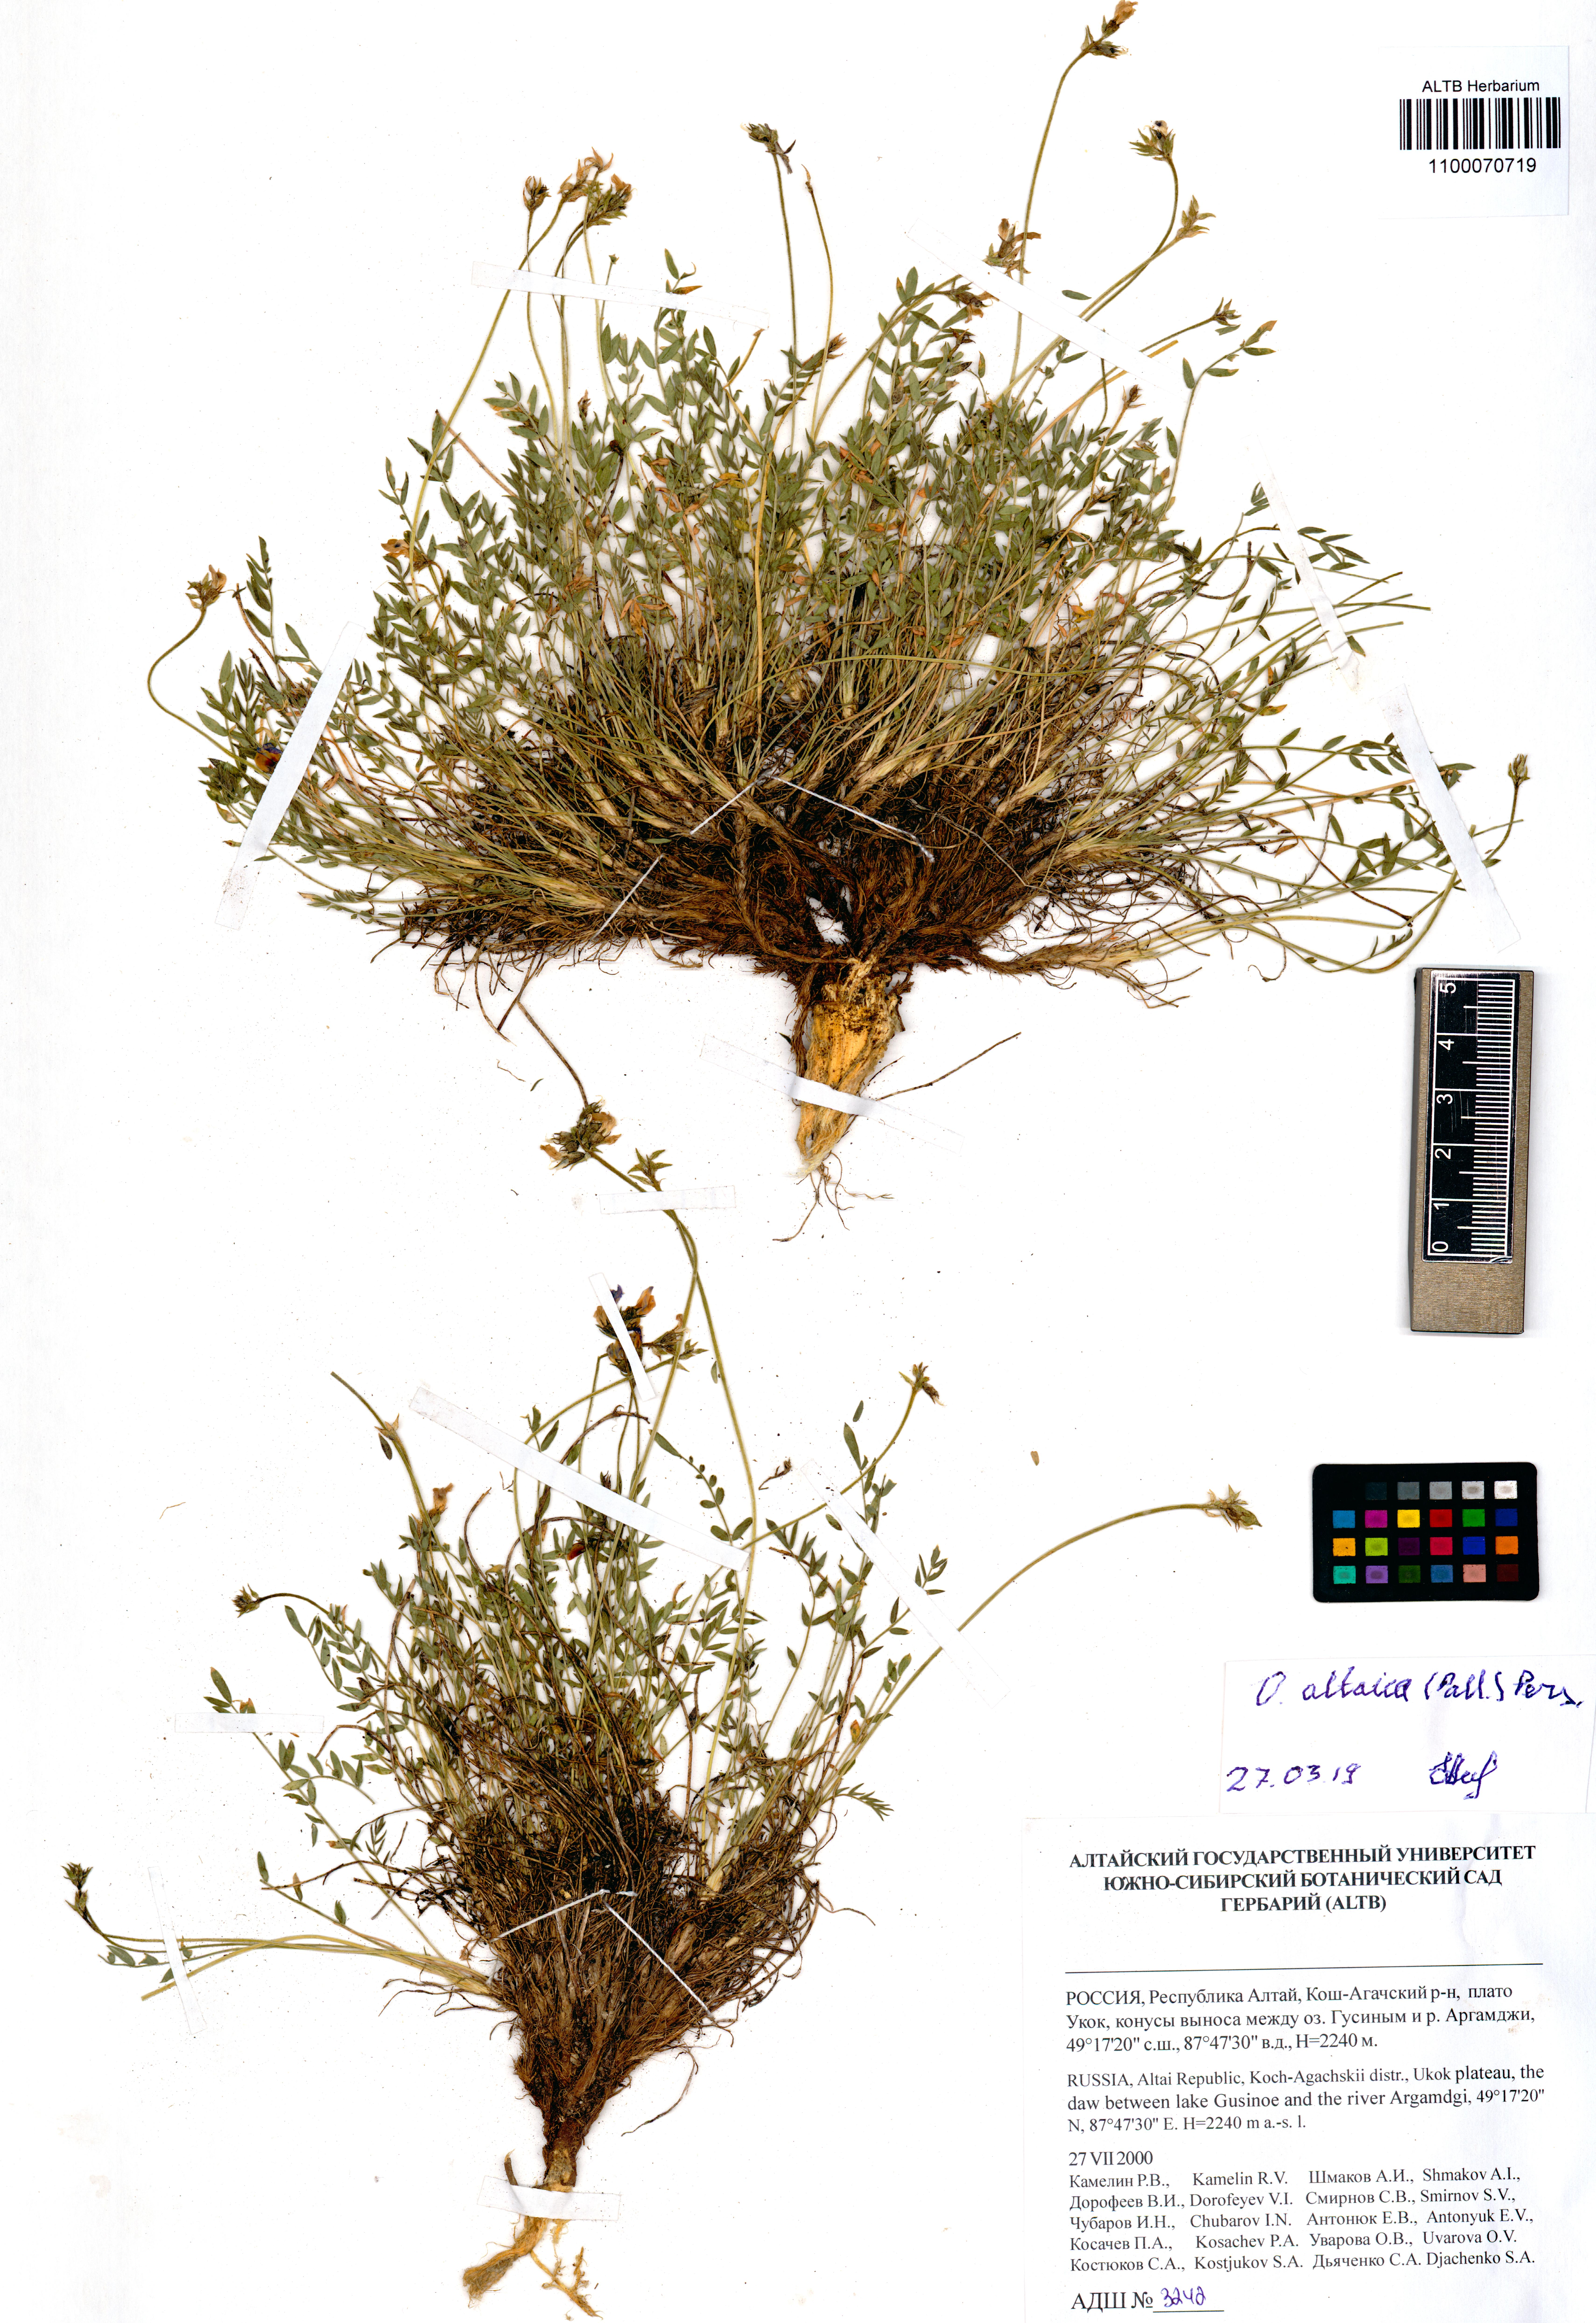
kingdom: Plantae
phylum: Tracheophyta
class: Magnoliopsida
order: Fabales
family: Fabaceae
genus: Oxytropis
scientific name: Oxytropis altaica
